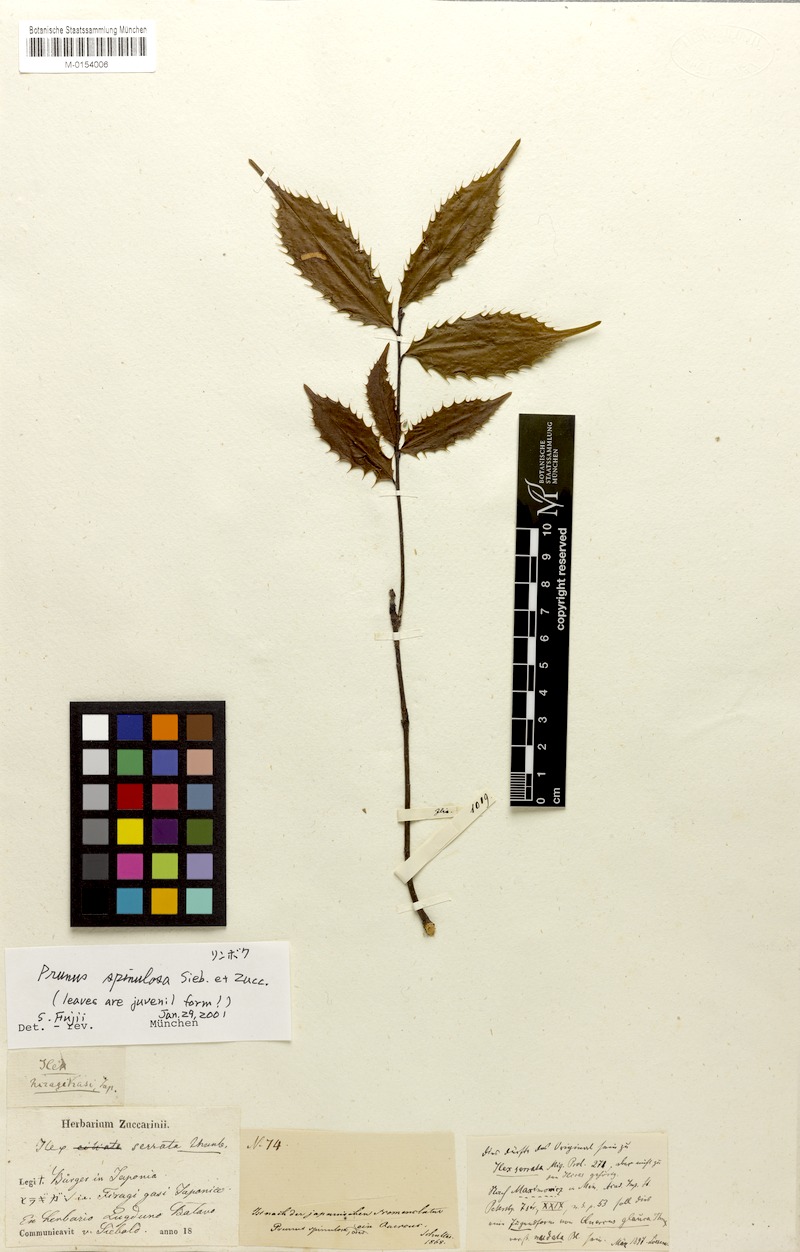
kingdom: Plantae
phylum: Tracheophyta
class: Magnoliopsida
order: Rosales
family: Rosaceae
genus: Prunus
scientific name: Prunus spinulosa
